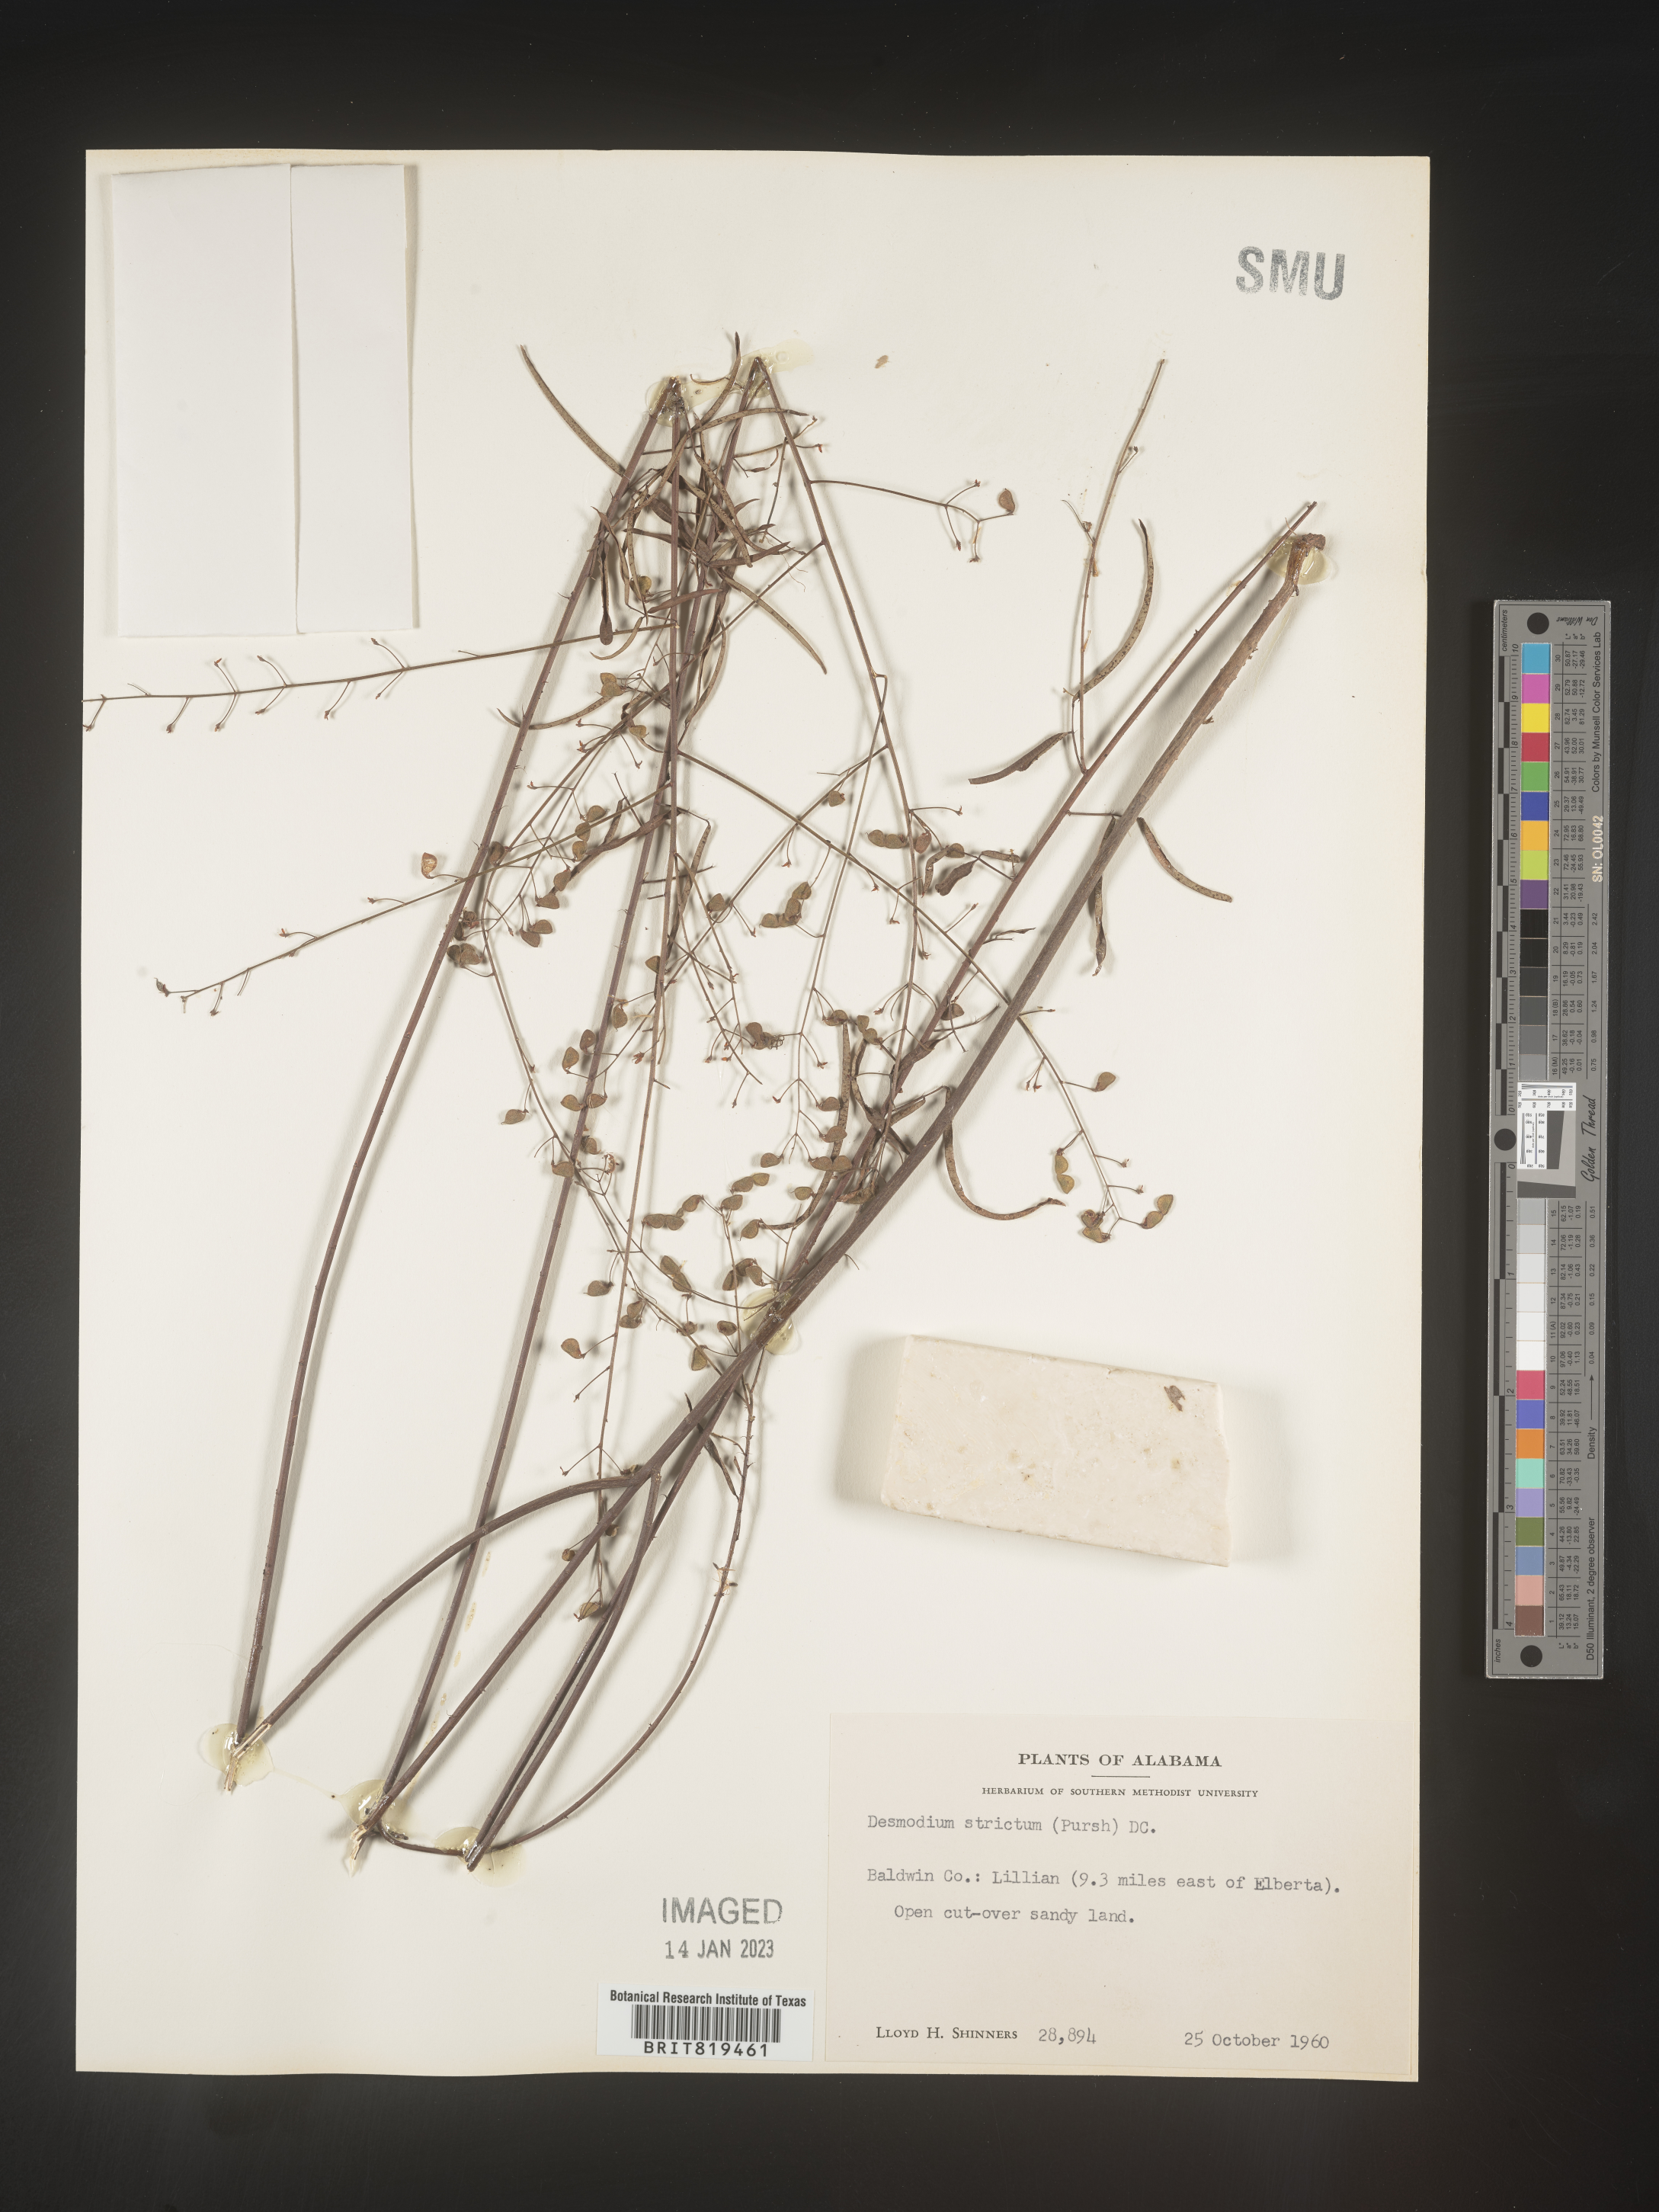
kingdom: Plantae
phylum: Tracheophyta
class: Magnoliopsida
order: Fabales
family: Fabaceae
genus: Desmodium
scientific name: Desmodium strictum
